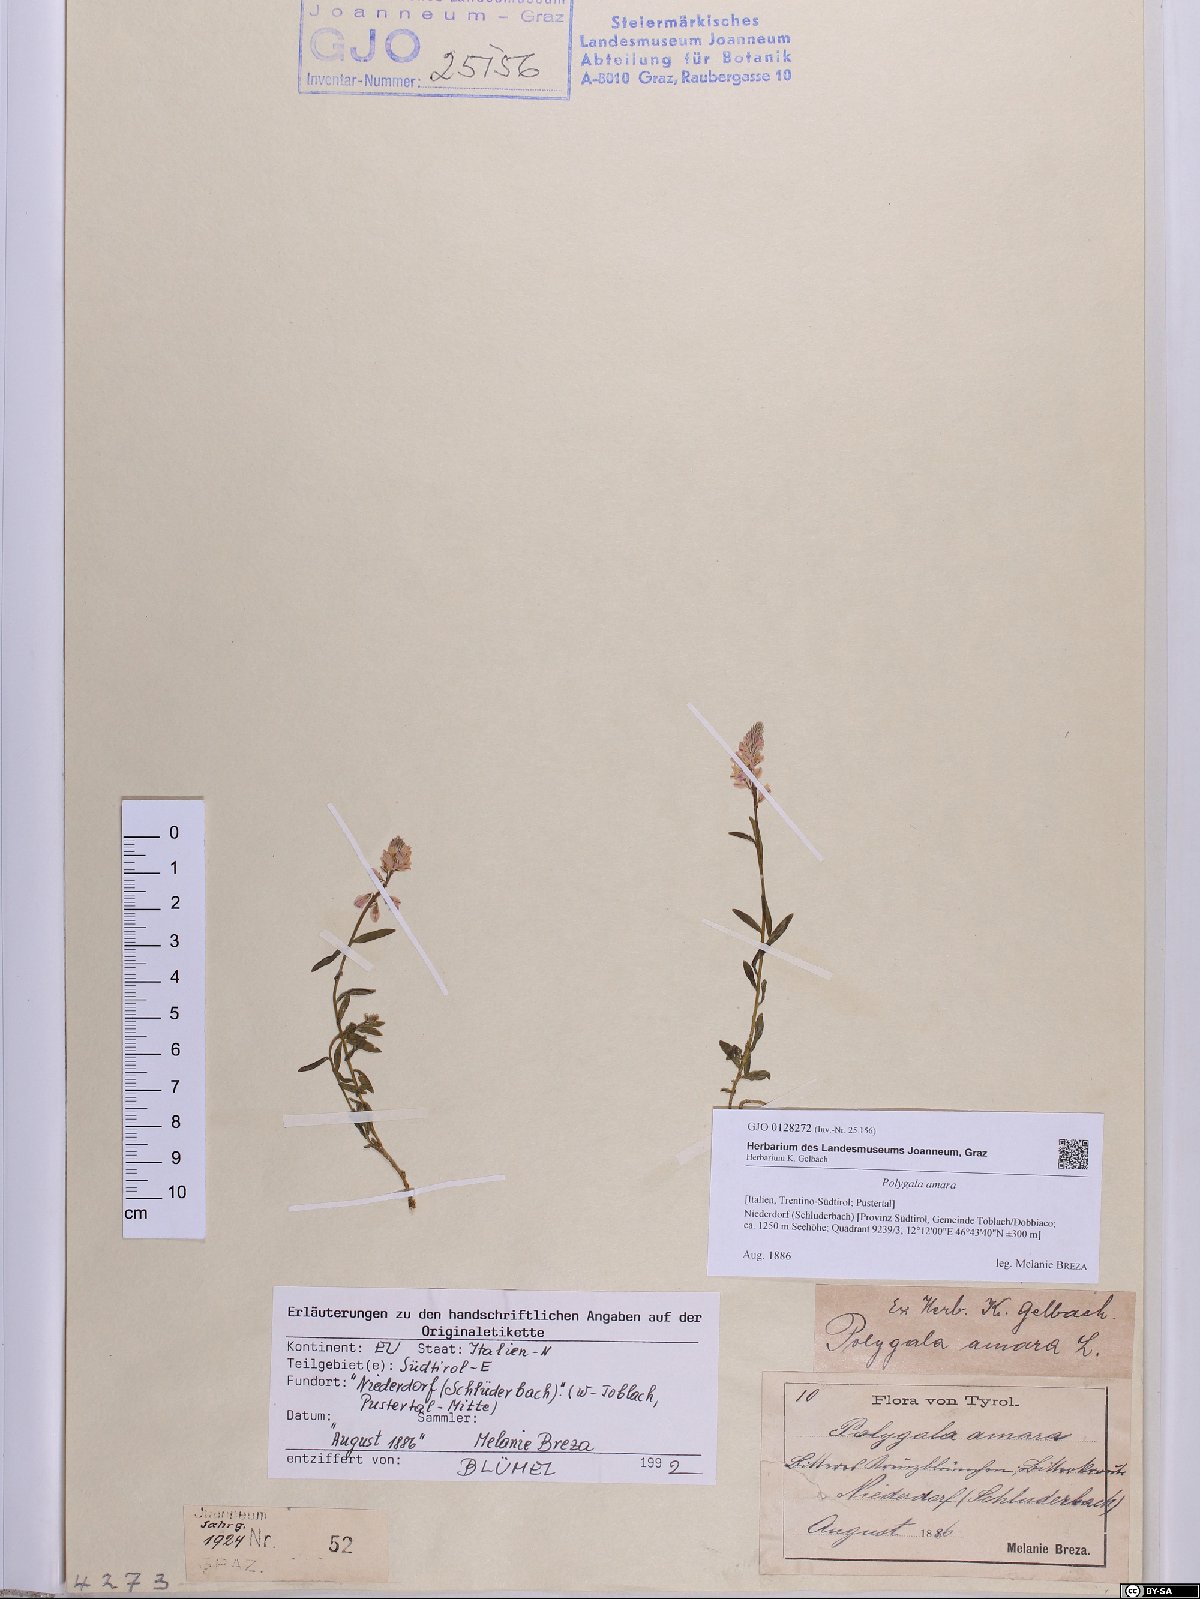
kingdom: Plantae
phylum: Tracheophyta
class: Magnoliopsida
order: Fabales
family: Polygalaceae
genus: Polygala
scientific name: Polygala amara
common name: Milkwort
